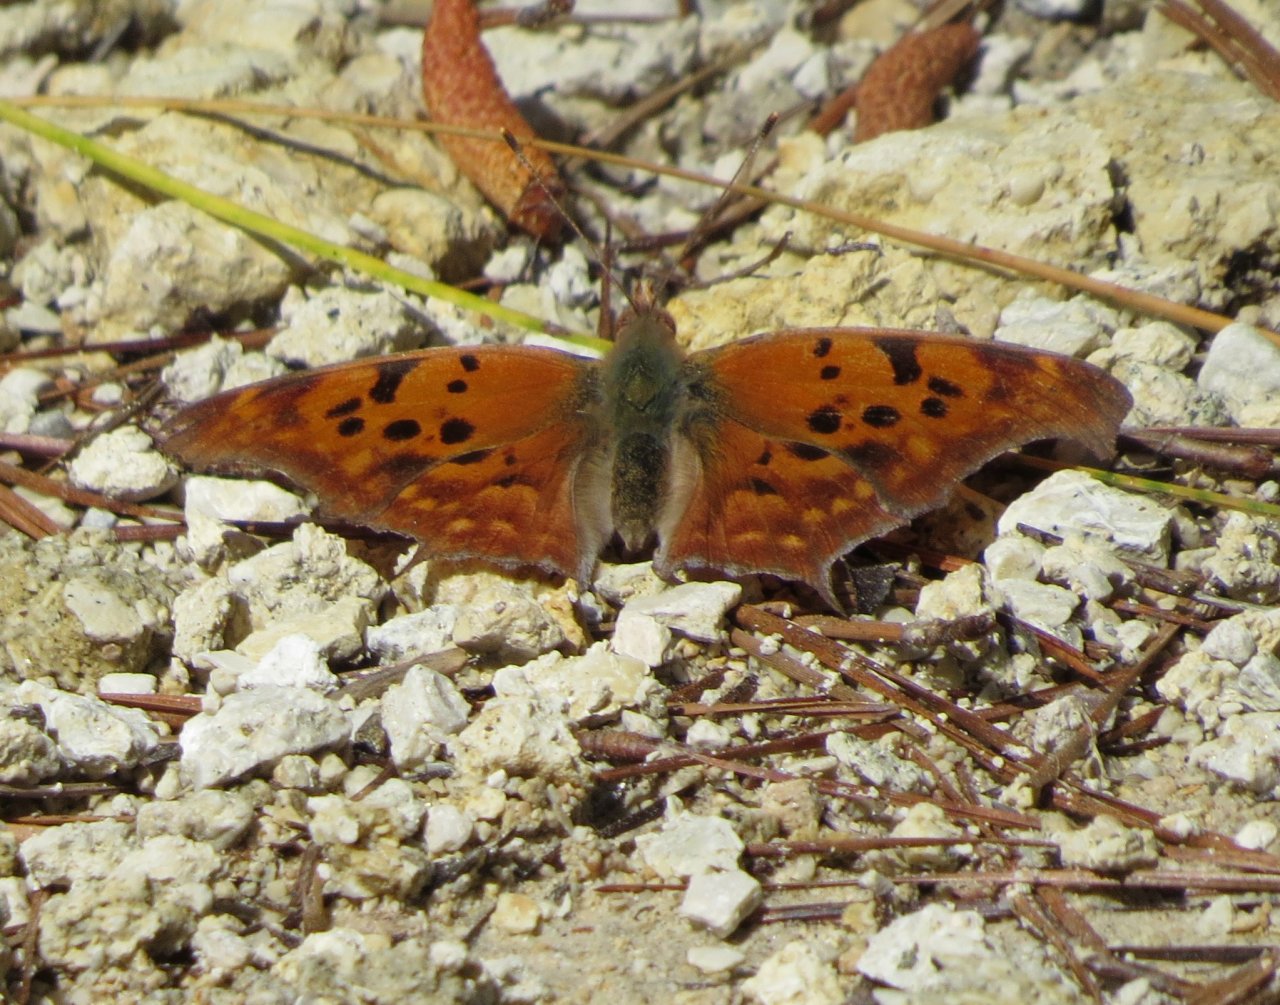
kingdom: Animalia
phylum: Arthropoda
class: Insecta
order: Lepidoptera
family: Nymphalidae
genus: Polygonia
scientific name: Polygonia interrogationis
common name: Question Mark
